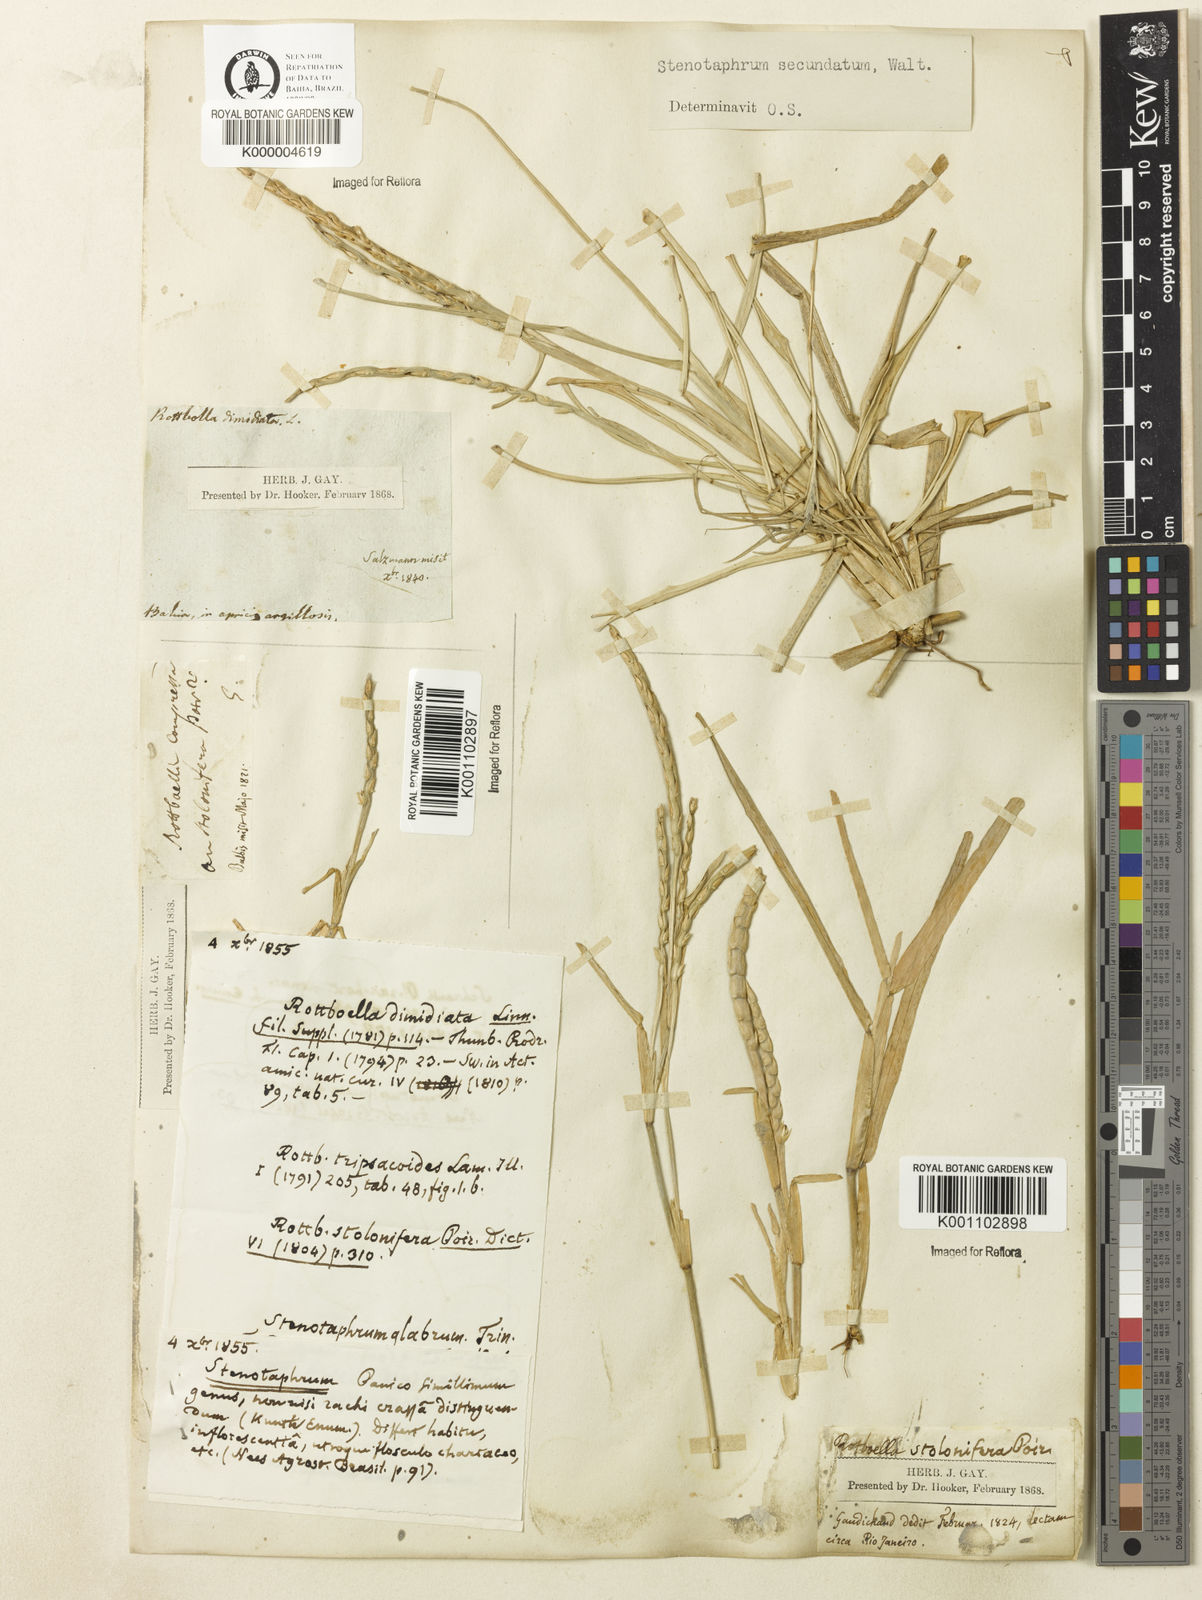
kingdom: Plantae
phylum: Tracheophyta
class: Liliopsida
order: Poales
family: Poaceae
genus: Stenotaphrum
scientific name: Stenotaphrum secundatum
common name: St. augustine grass
